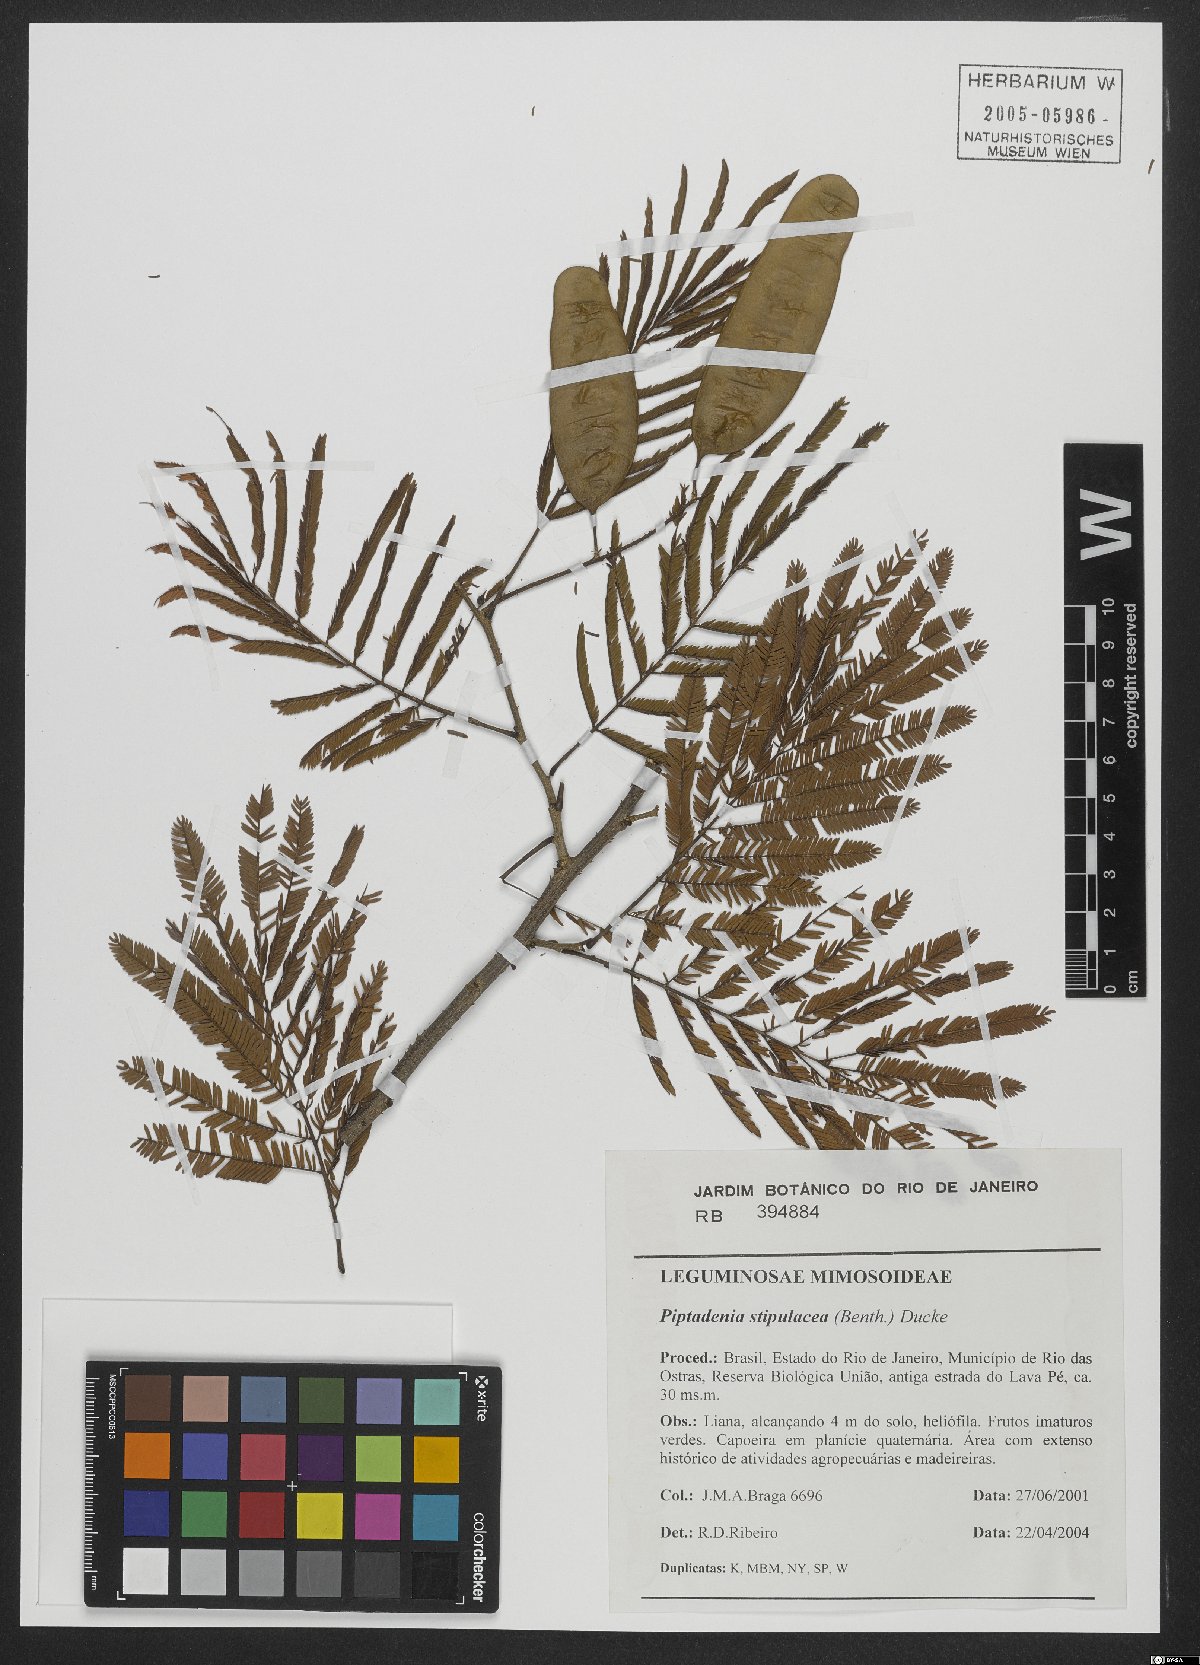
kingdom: Plantae
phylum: Tracheophyta
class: Magnoliopsida
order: Fabales
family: Fabaceae
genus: Piptadenia
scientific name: Piptadenia retusa
